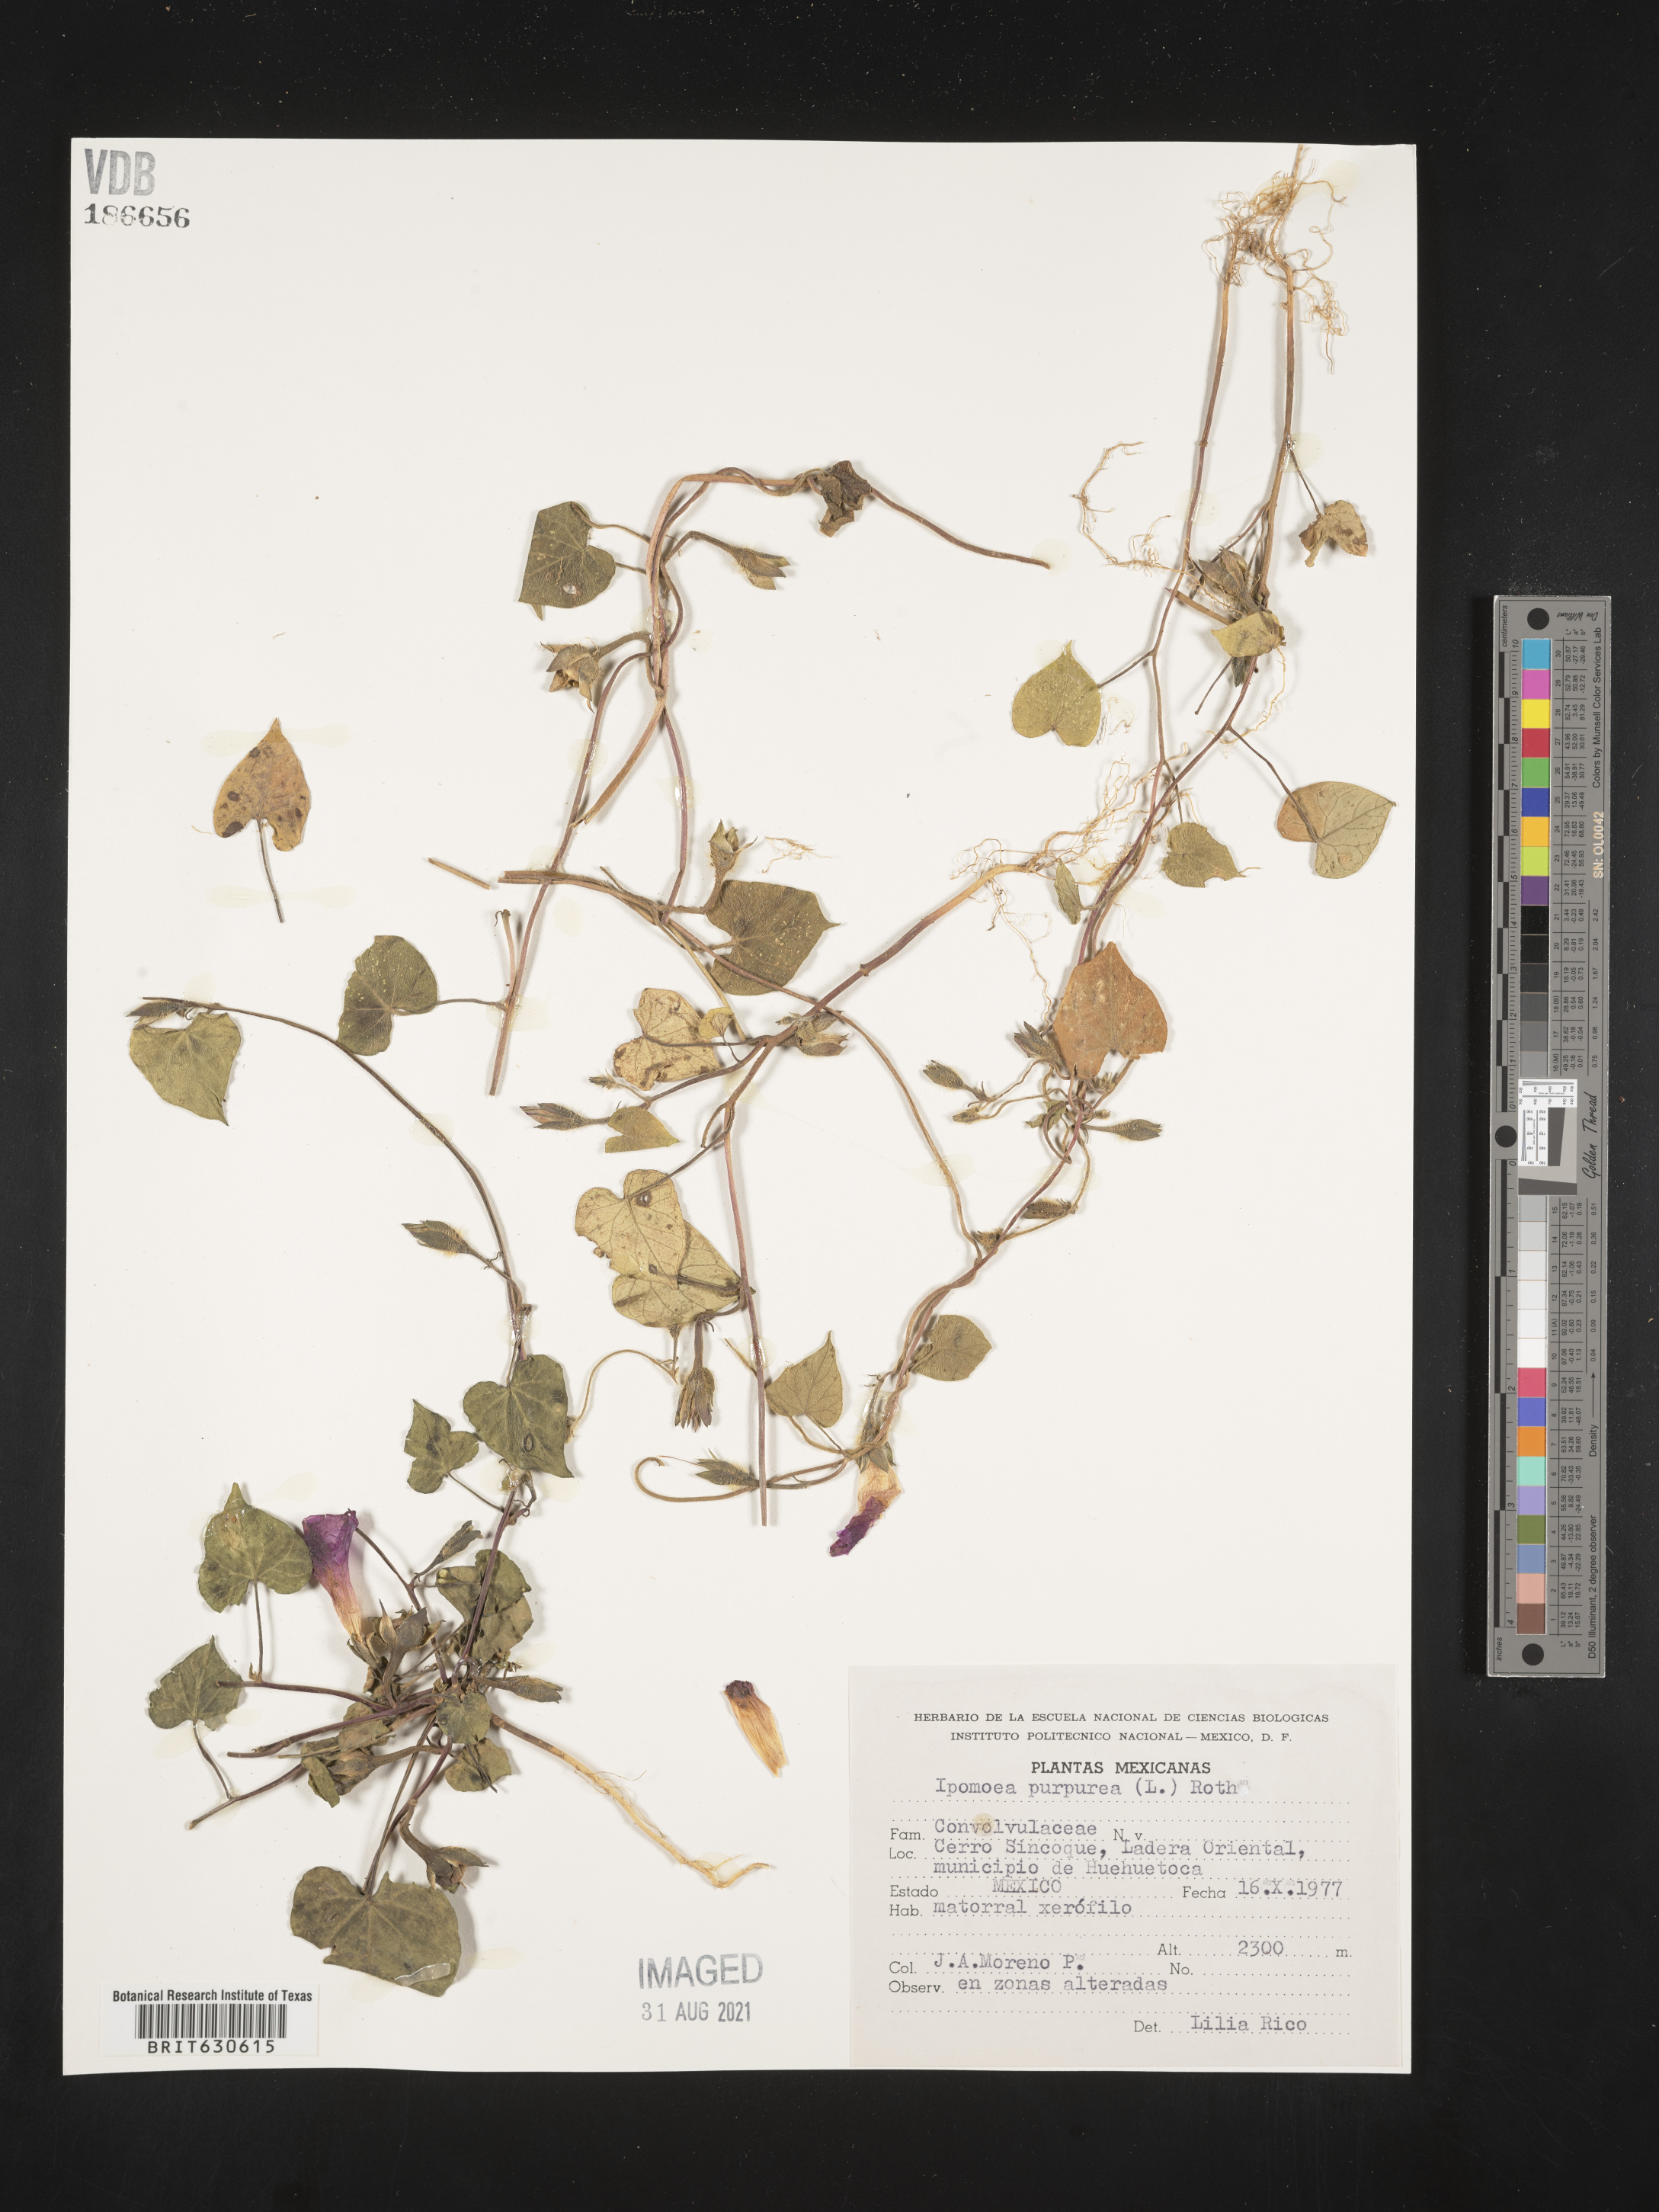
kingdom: Plantae
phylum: Tracheophyta
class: Magnoliopsida
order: Solanales
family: Convolvulaceae
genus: Ipomoea
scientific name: Ipomoea
